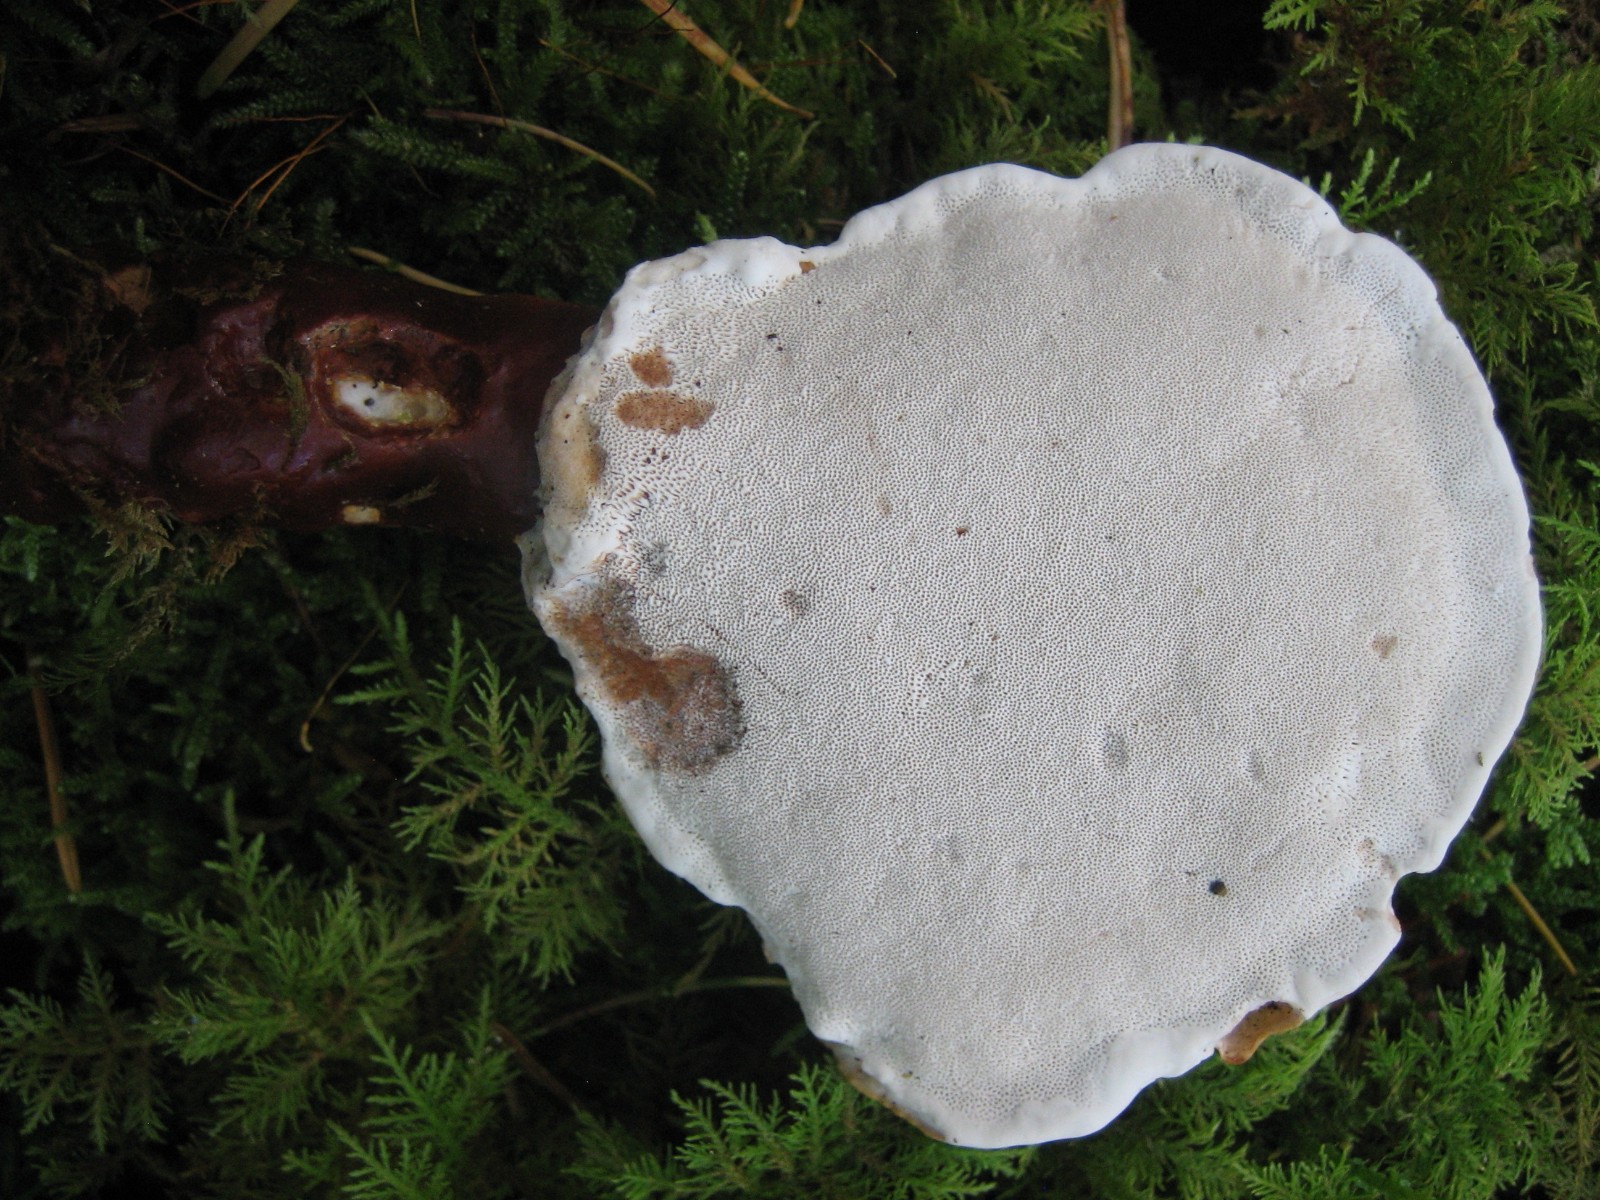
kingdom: Fungi
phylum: Basidiomycota
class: Agaricomycetes
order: Polyporales
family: Polyporaceae
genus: Ganoderma
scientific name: Ganoderma lucidum
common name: skinnende lakporesvamp
